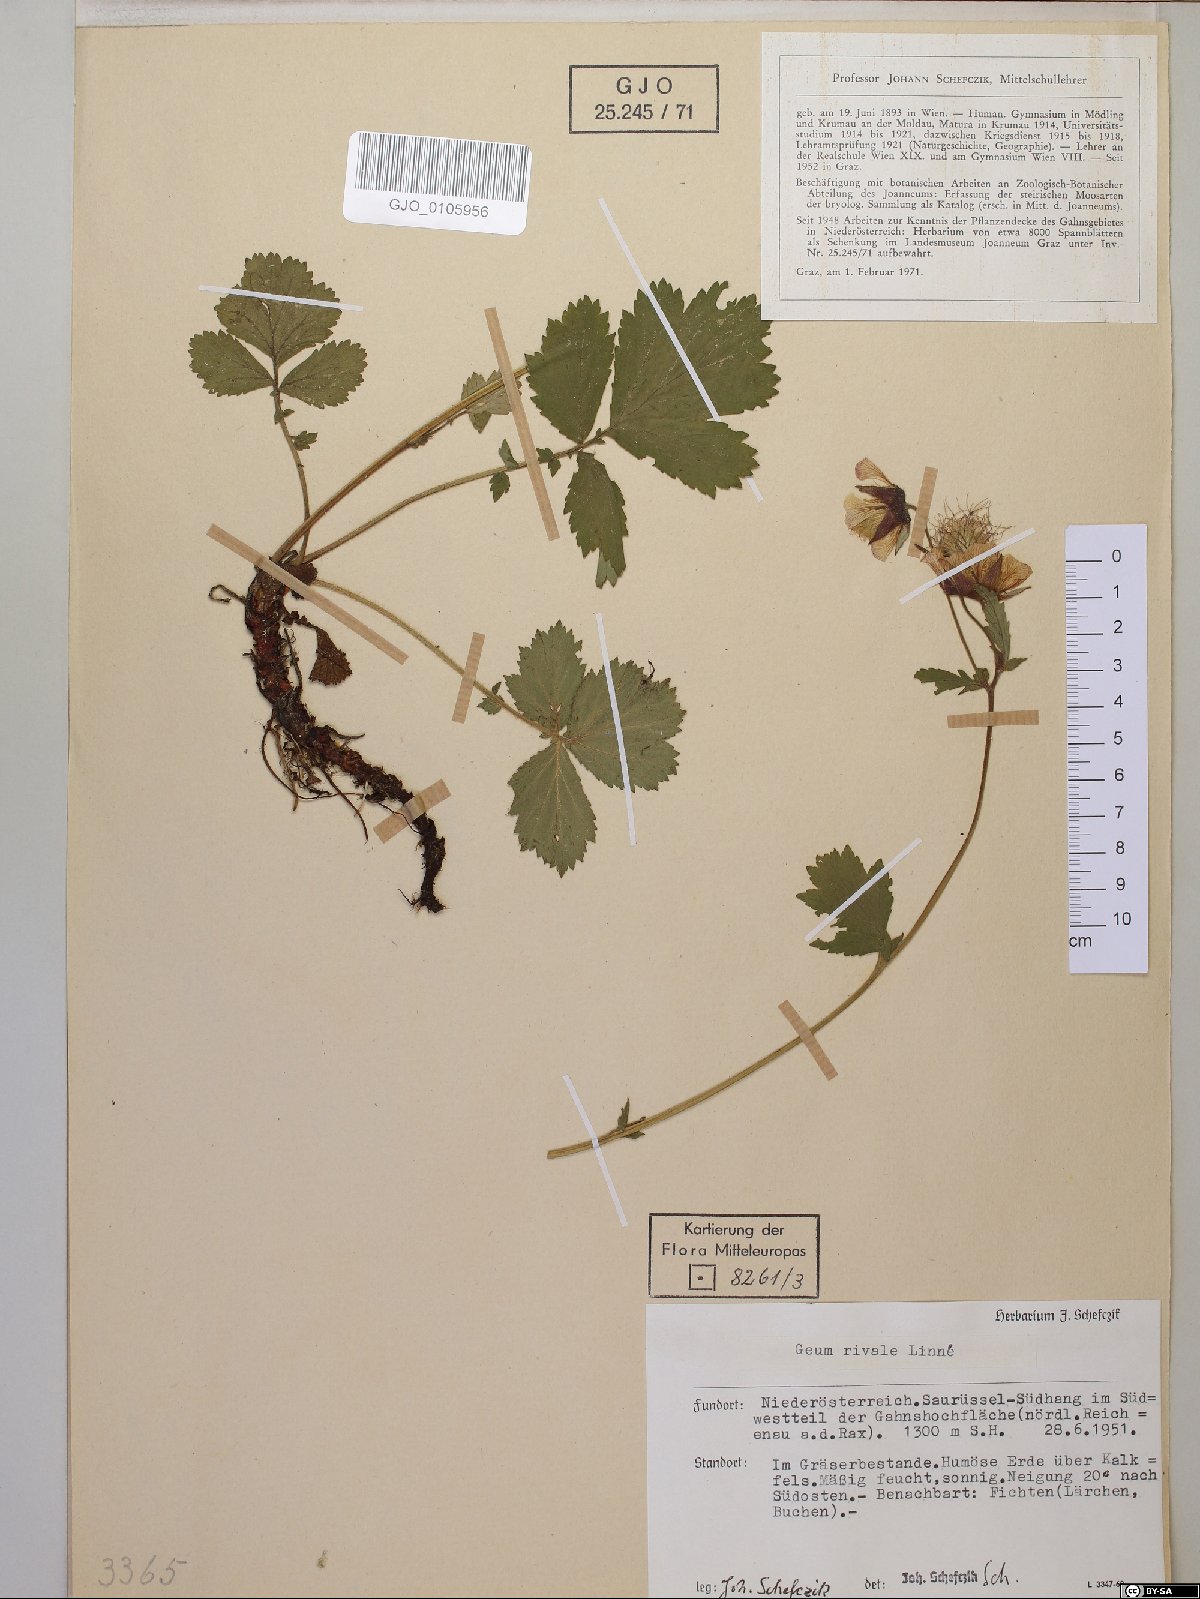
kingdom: Plantae
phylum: Tracheophyta
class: Magnoliopsida
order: Rosales
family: Rosaceae
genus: Geum
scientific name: Geum rivale
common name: Water avens
